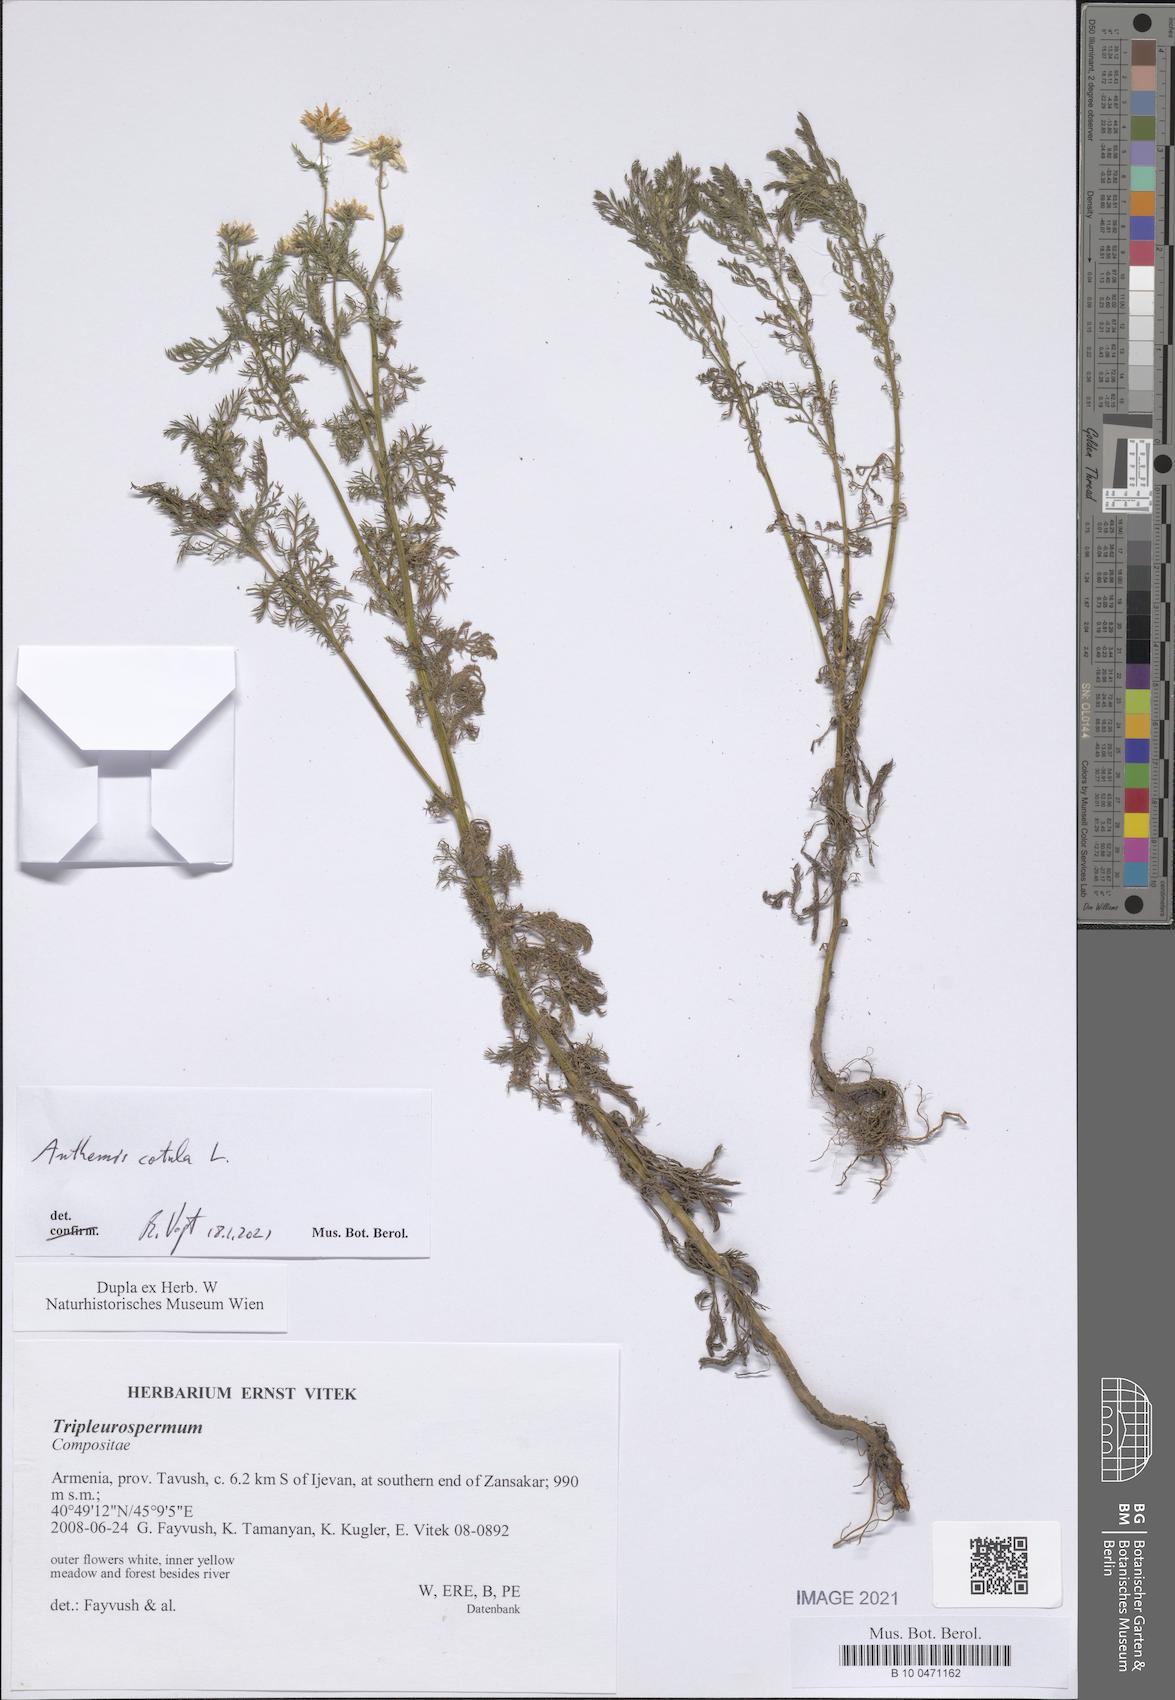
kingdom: Plantae
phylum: Tracheophyta
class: Magnoliopsida
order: Asterales
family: Asteraceae
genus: Anthemis
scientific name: Anthemis cotula
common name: Stinking chamomile
